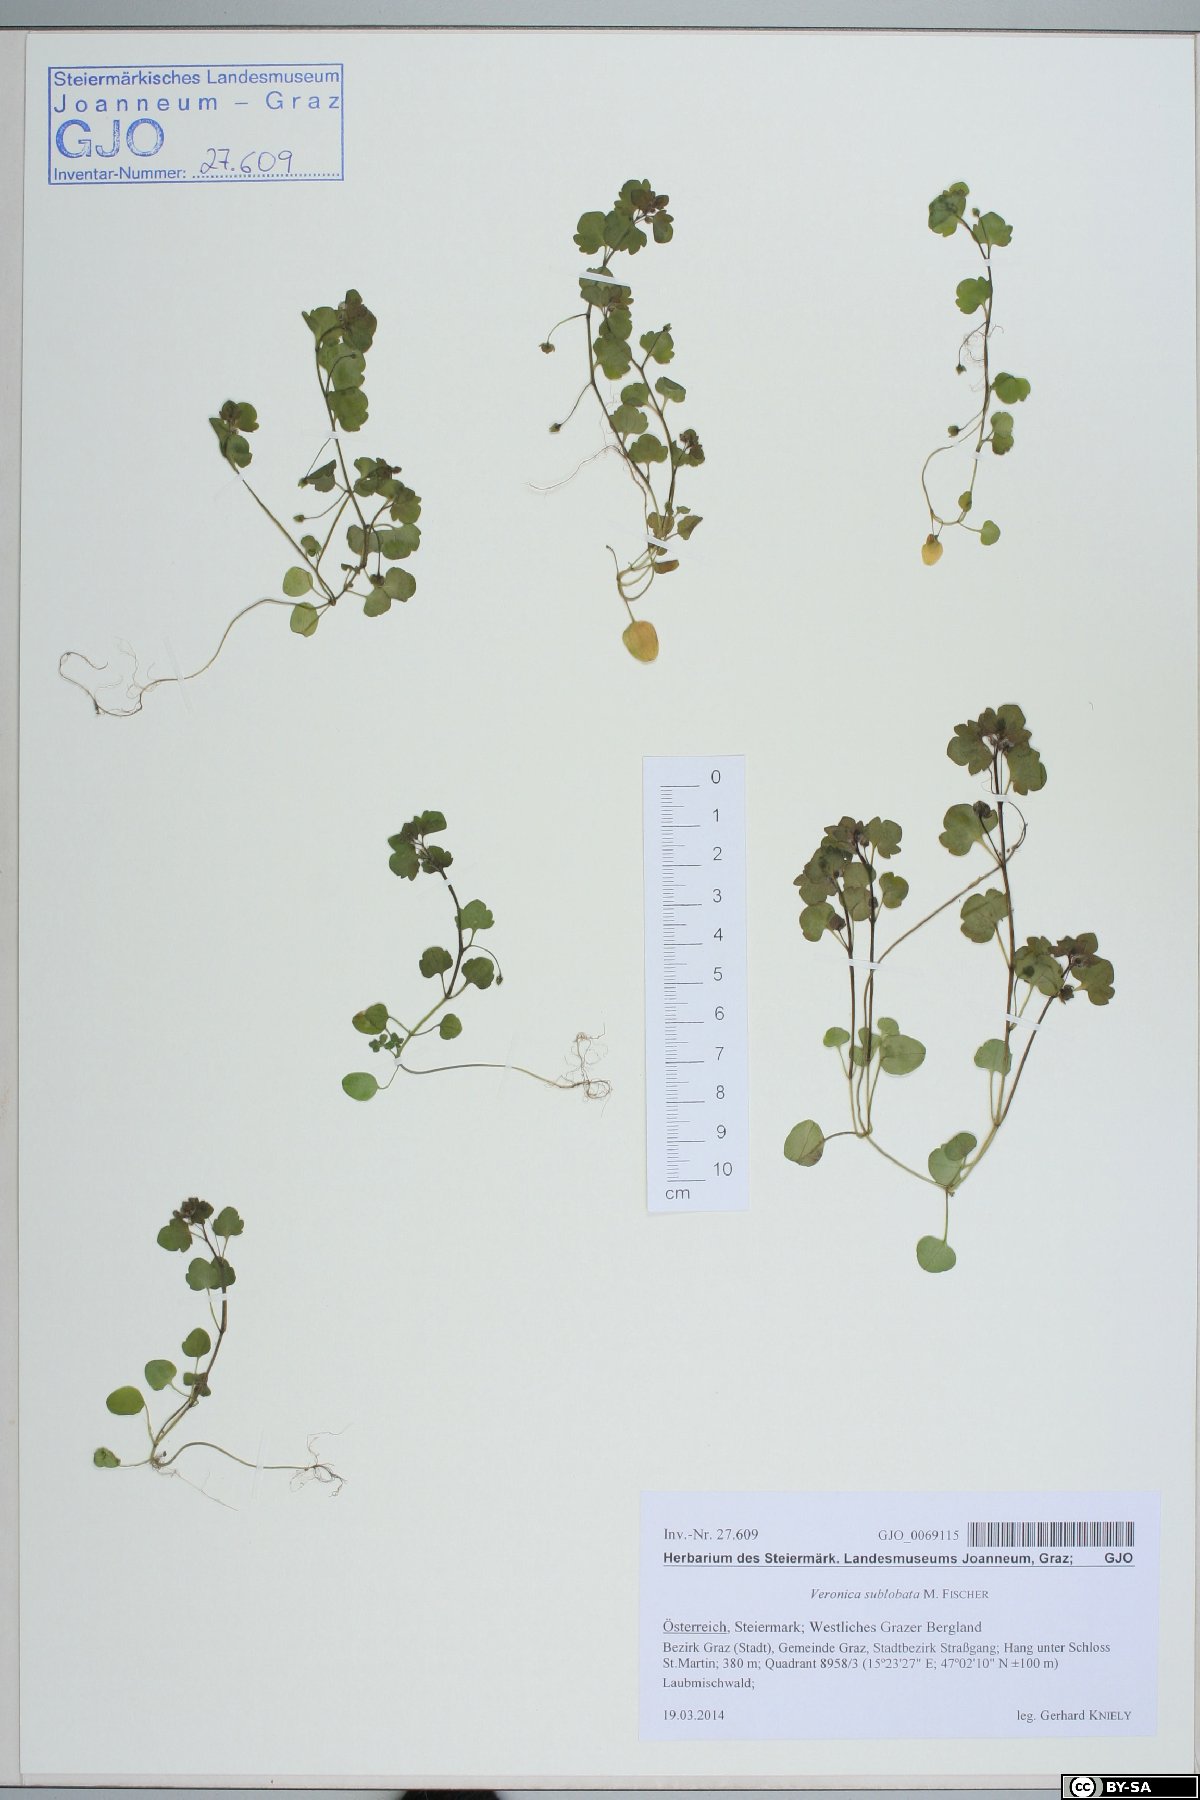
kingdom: Plantae
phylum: Tracheophyta
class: Magnoliopsida
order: Lamiales
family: Plantaginaceae
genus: Veronica
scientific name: Veronica sublobata
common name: False ivy-leaved speedwell
